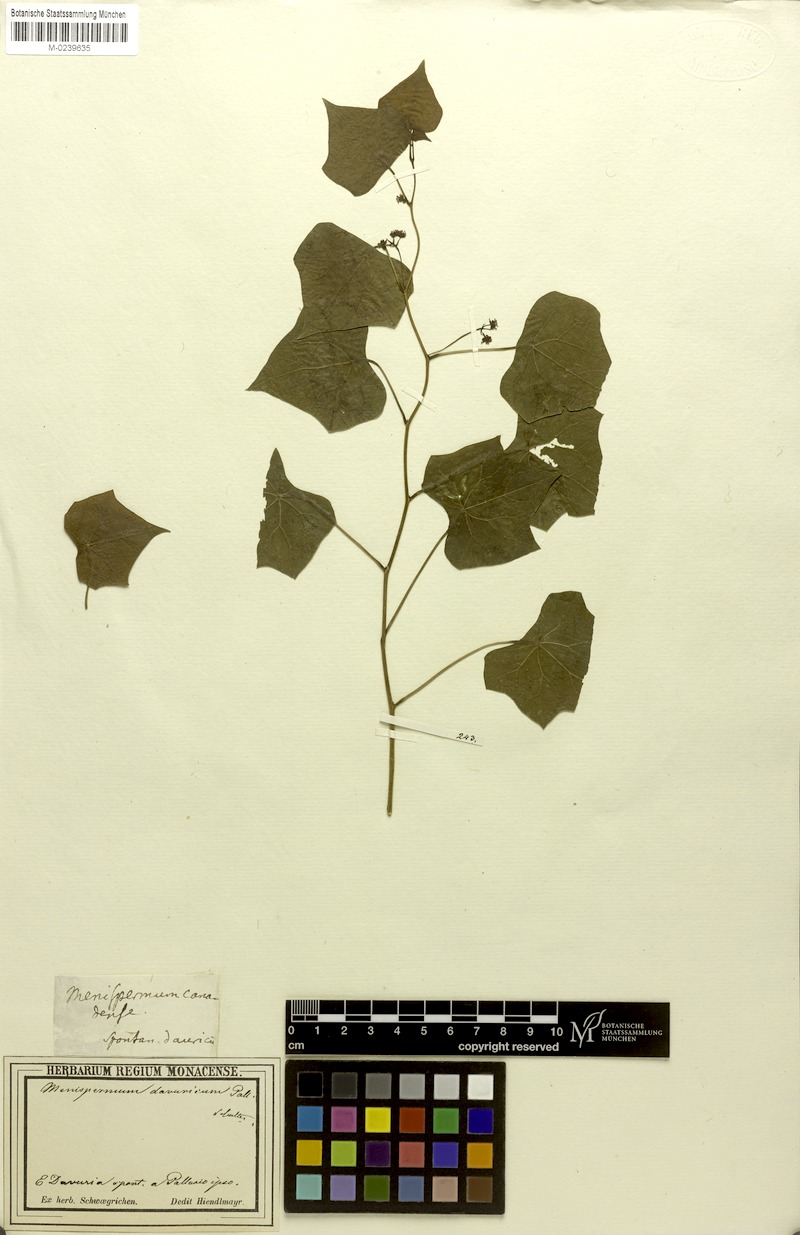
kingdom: Plantae
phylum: Tracheophyta
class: Magnoliopsida
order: Ranunculales
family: Menispermaceae
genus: Menispermum
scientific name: Menispermum dauricum
